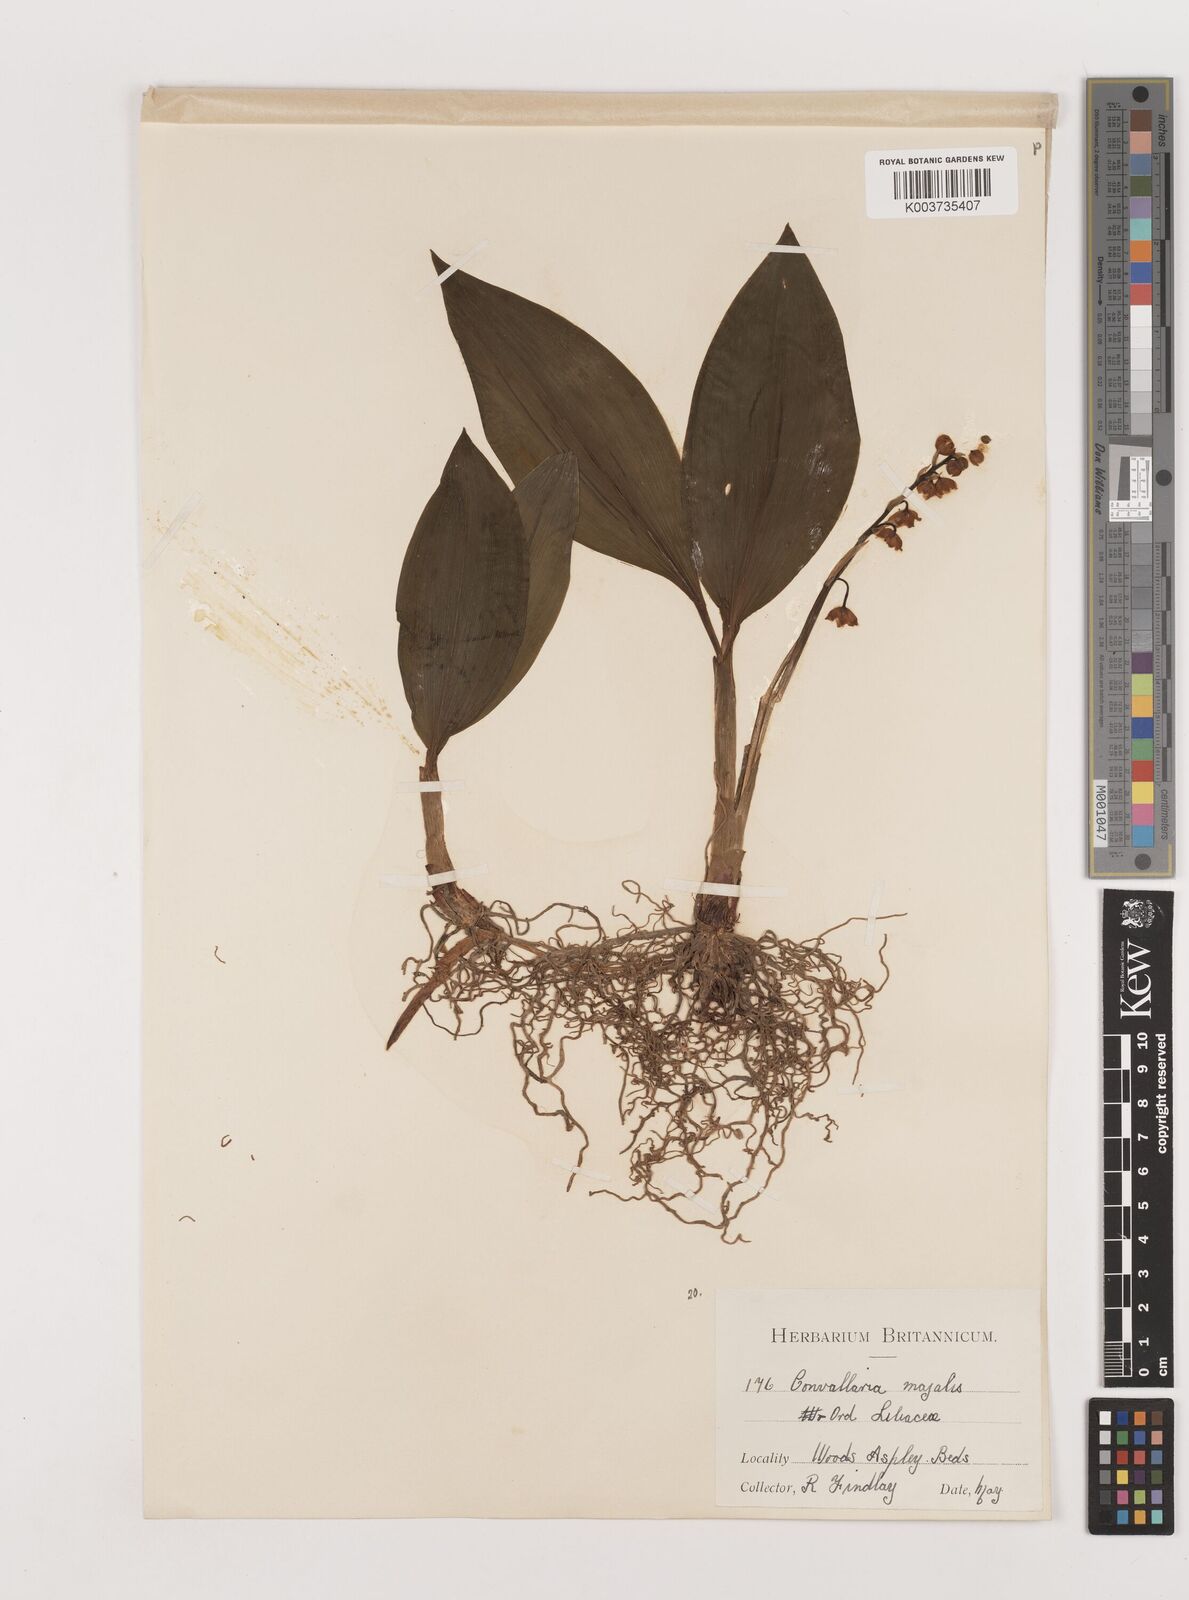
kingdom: Plantae
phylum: Tracheophyta
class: Liliopsida
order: Asparagales
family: Asparagaceae
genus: Convallaria
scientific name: Convallaria majalis
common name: Lily-of-the-valley
